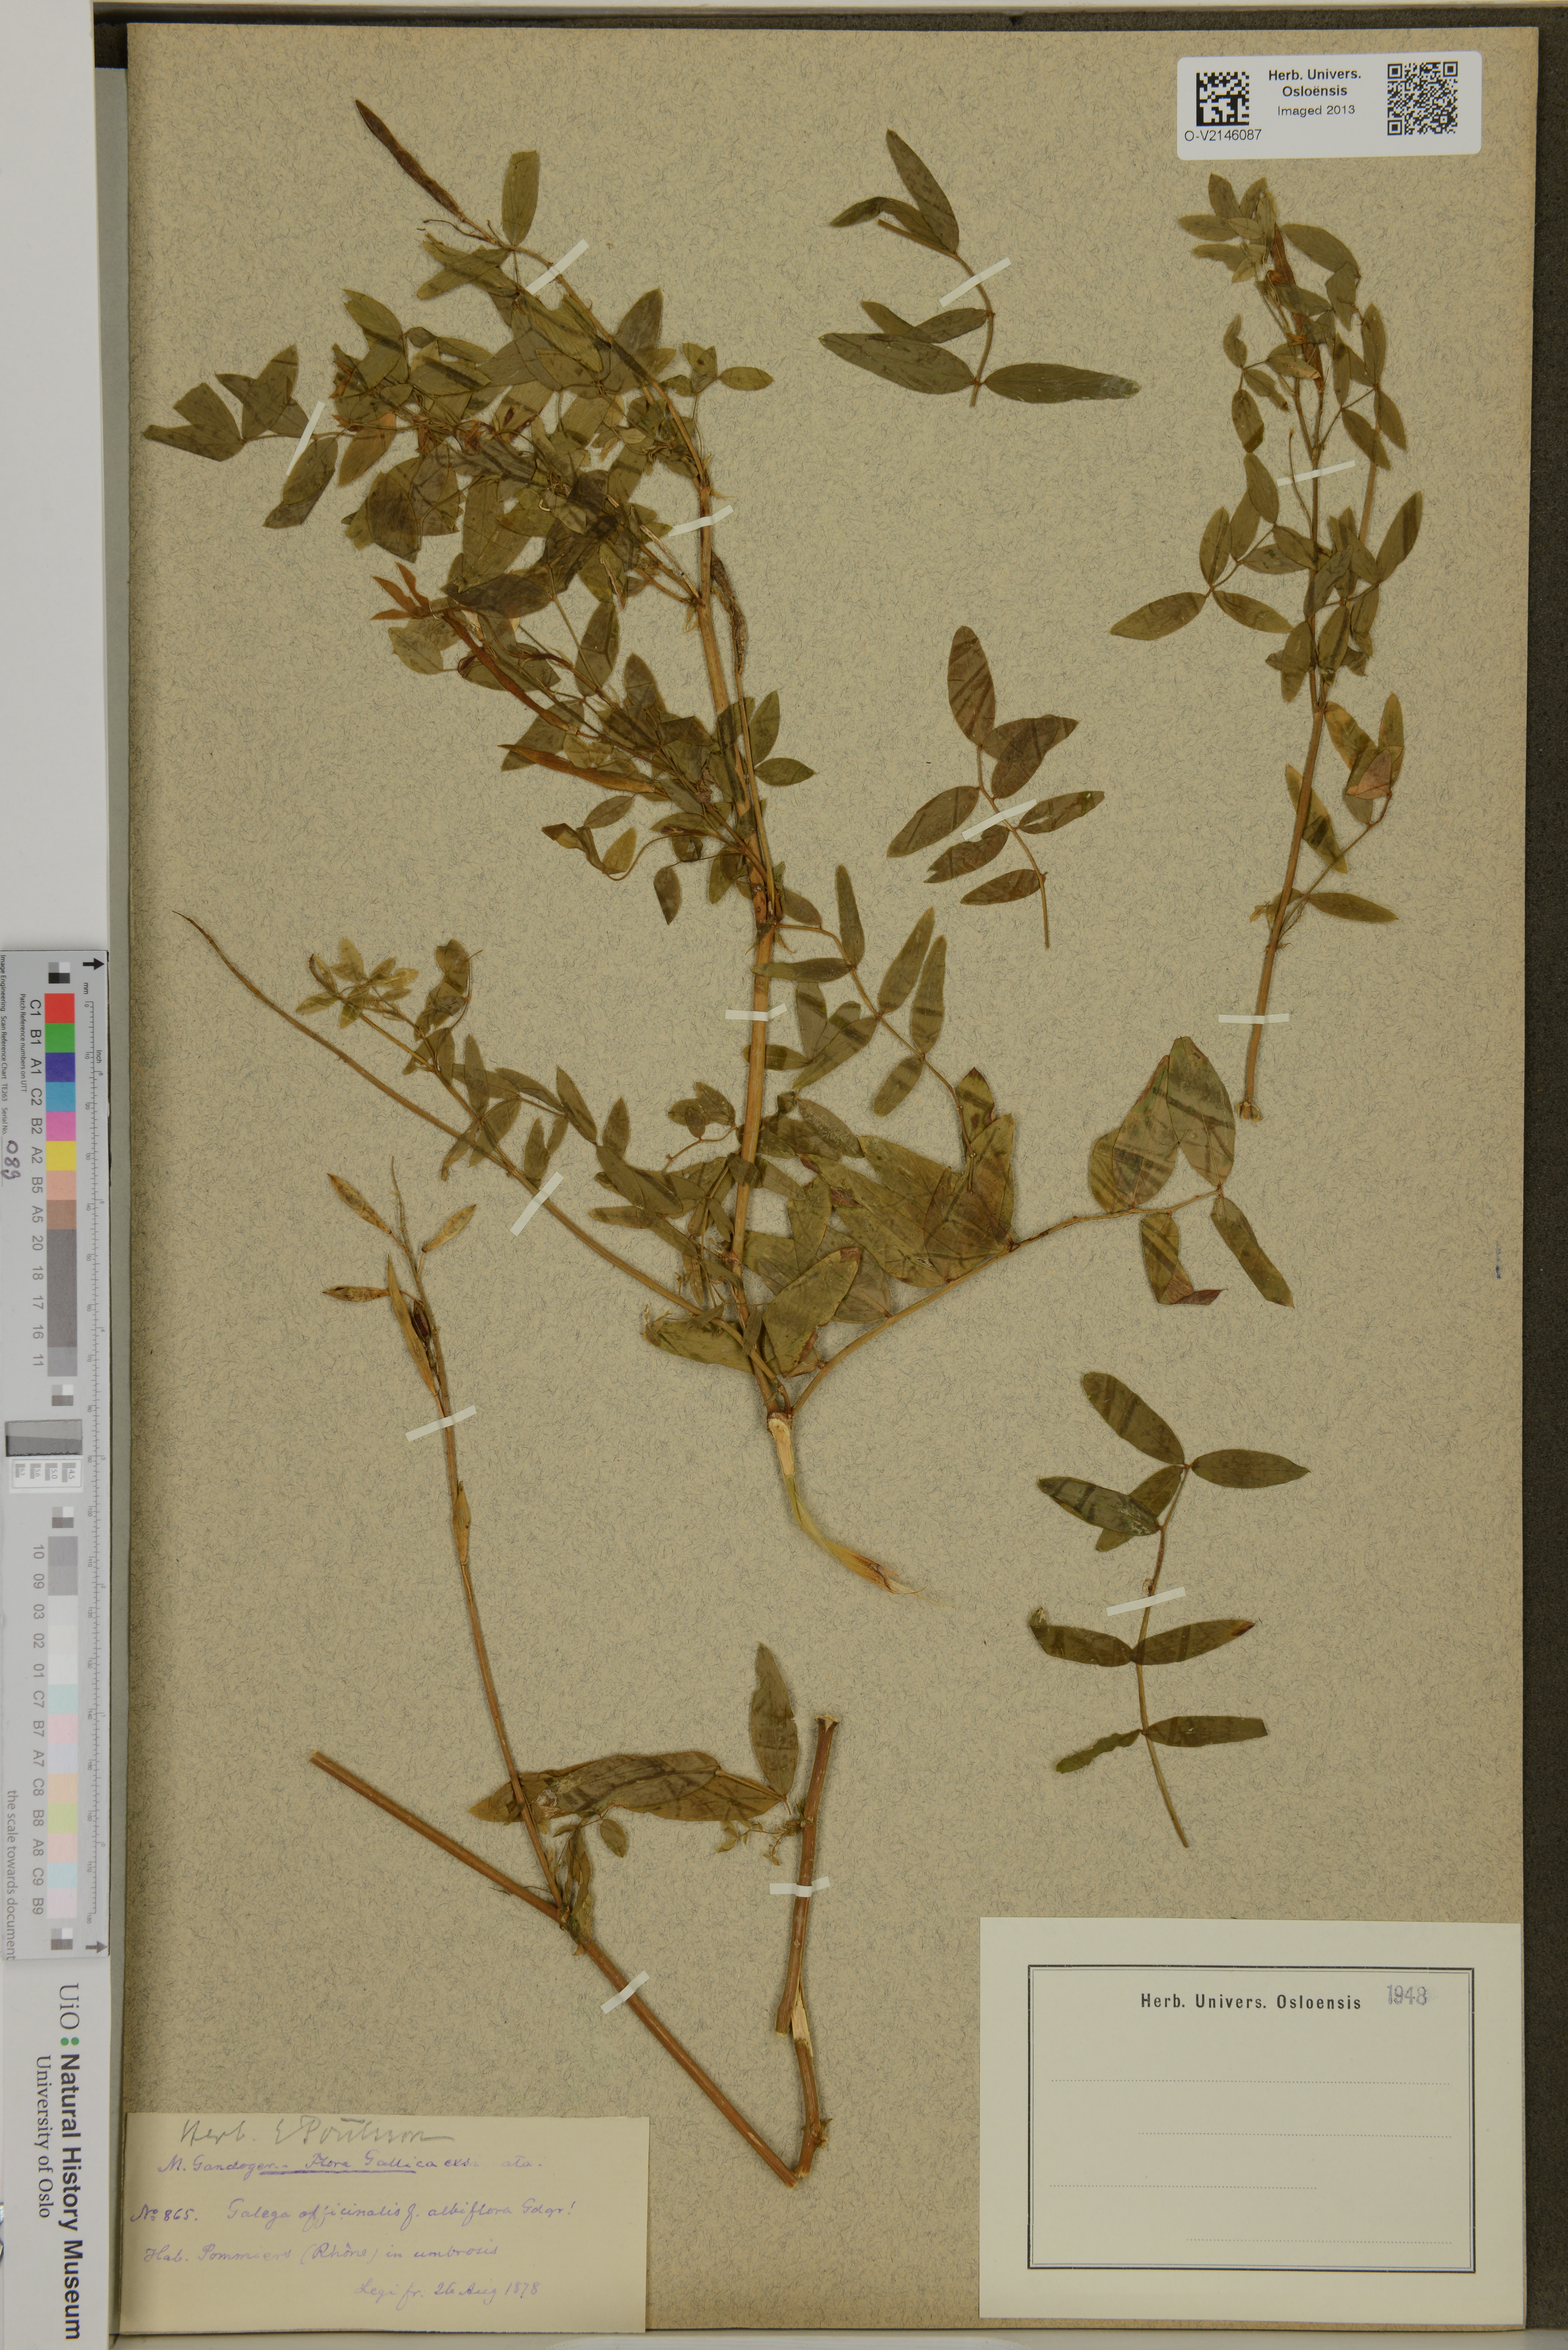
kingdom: Plantae
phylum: Tracheophyta
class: Magnoliopsida
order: Fabales
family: Fabaceae
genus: Galega
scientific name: Galega officinalis
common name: Goat's-rue
